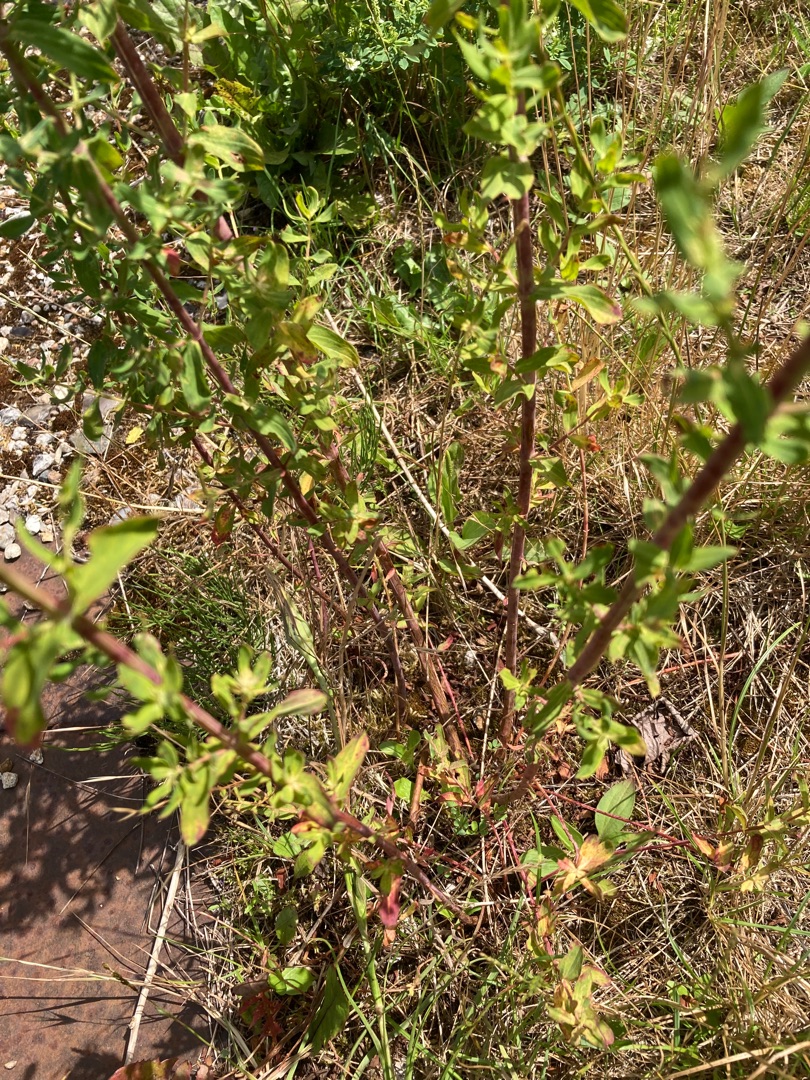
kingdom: Plantae
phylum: Tracheophyta
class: Magnoliopsida
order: Malpighiales
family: Hypericaceae
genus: Hypericum
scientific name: Hypericum perforatum
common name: Prikbladet perikon
